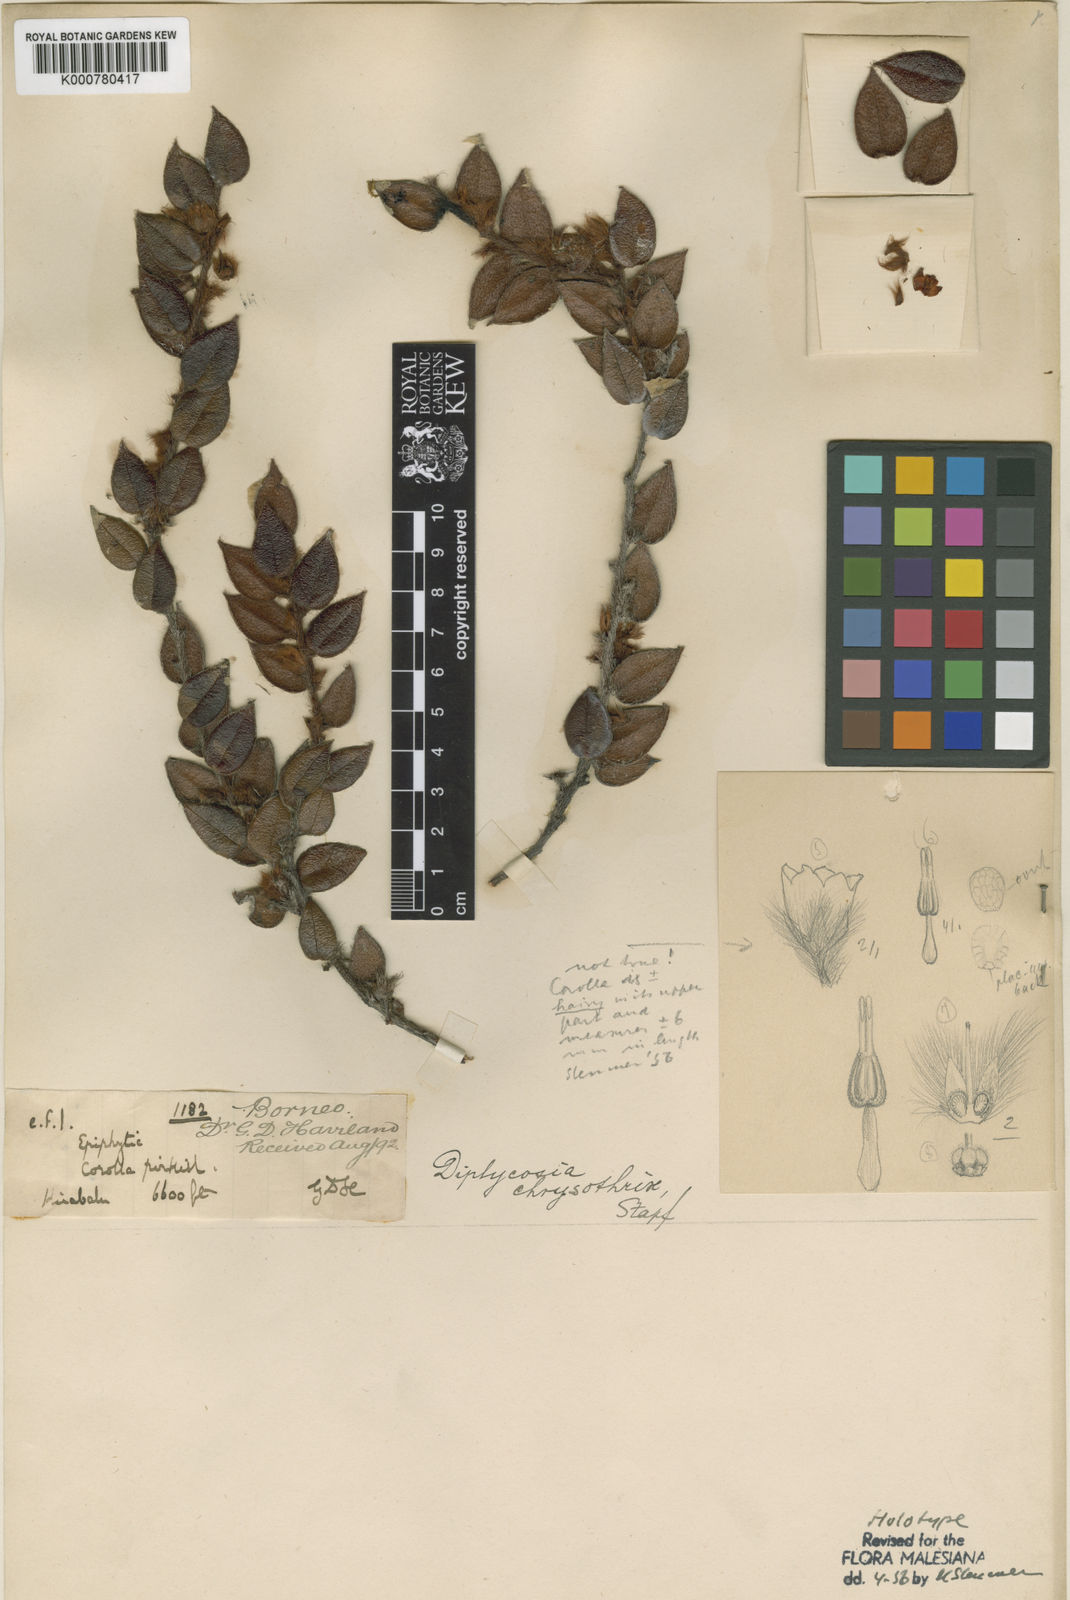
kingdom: Plantae
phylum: Tracheophyta
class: Magnoliopsida
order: Ericales
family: Ericaceae
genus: Gaultheria
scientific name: Gaultheria chrysothrix
